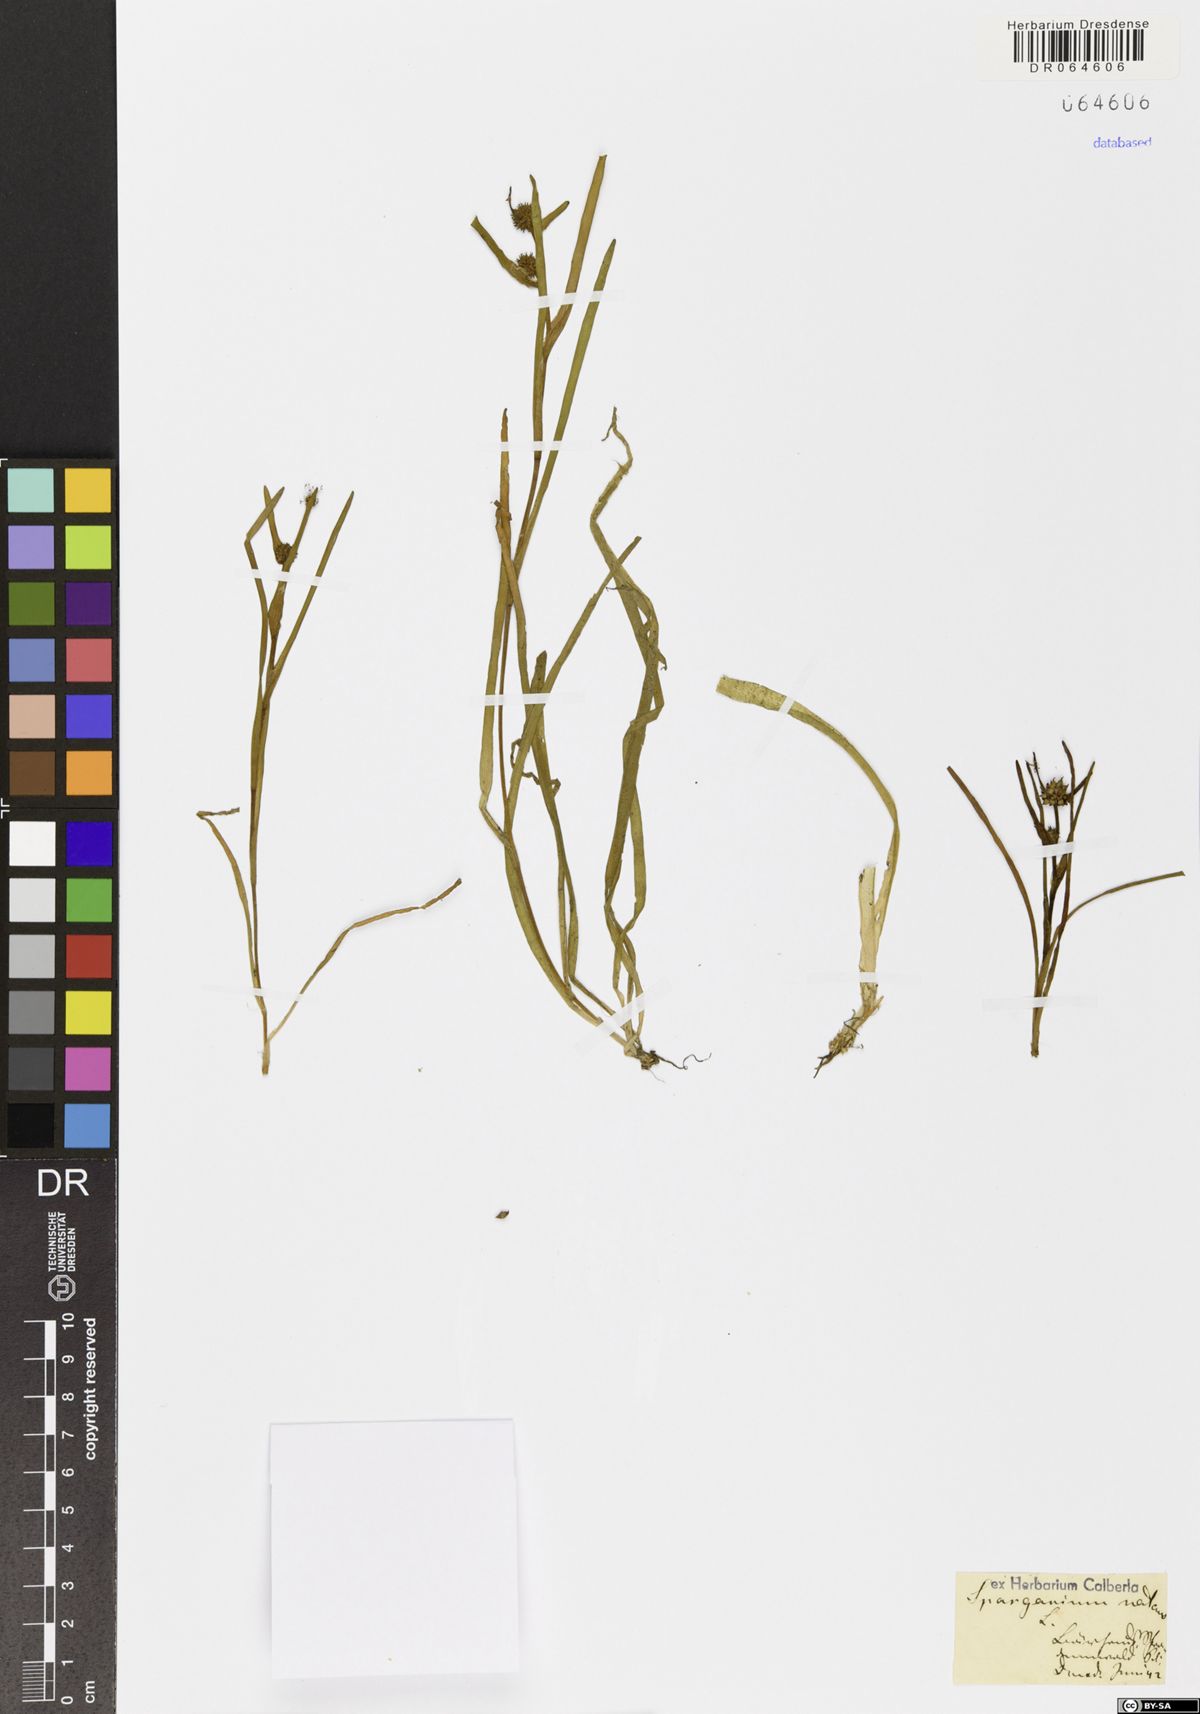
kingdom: Plantae
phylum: Tracheophyta
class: Liliopsida
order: Poales
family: Typhaceae
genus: Sparganium
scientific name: Sparganium natans
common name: Least bur-reed
